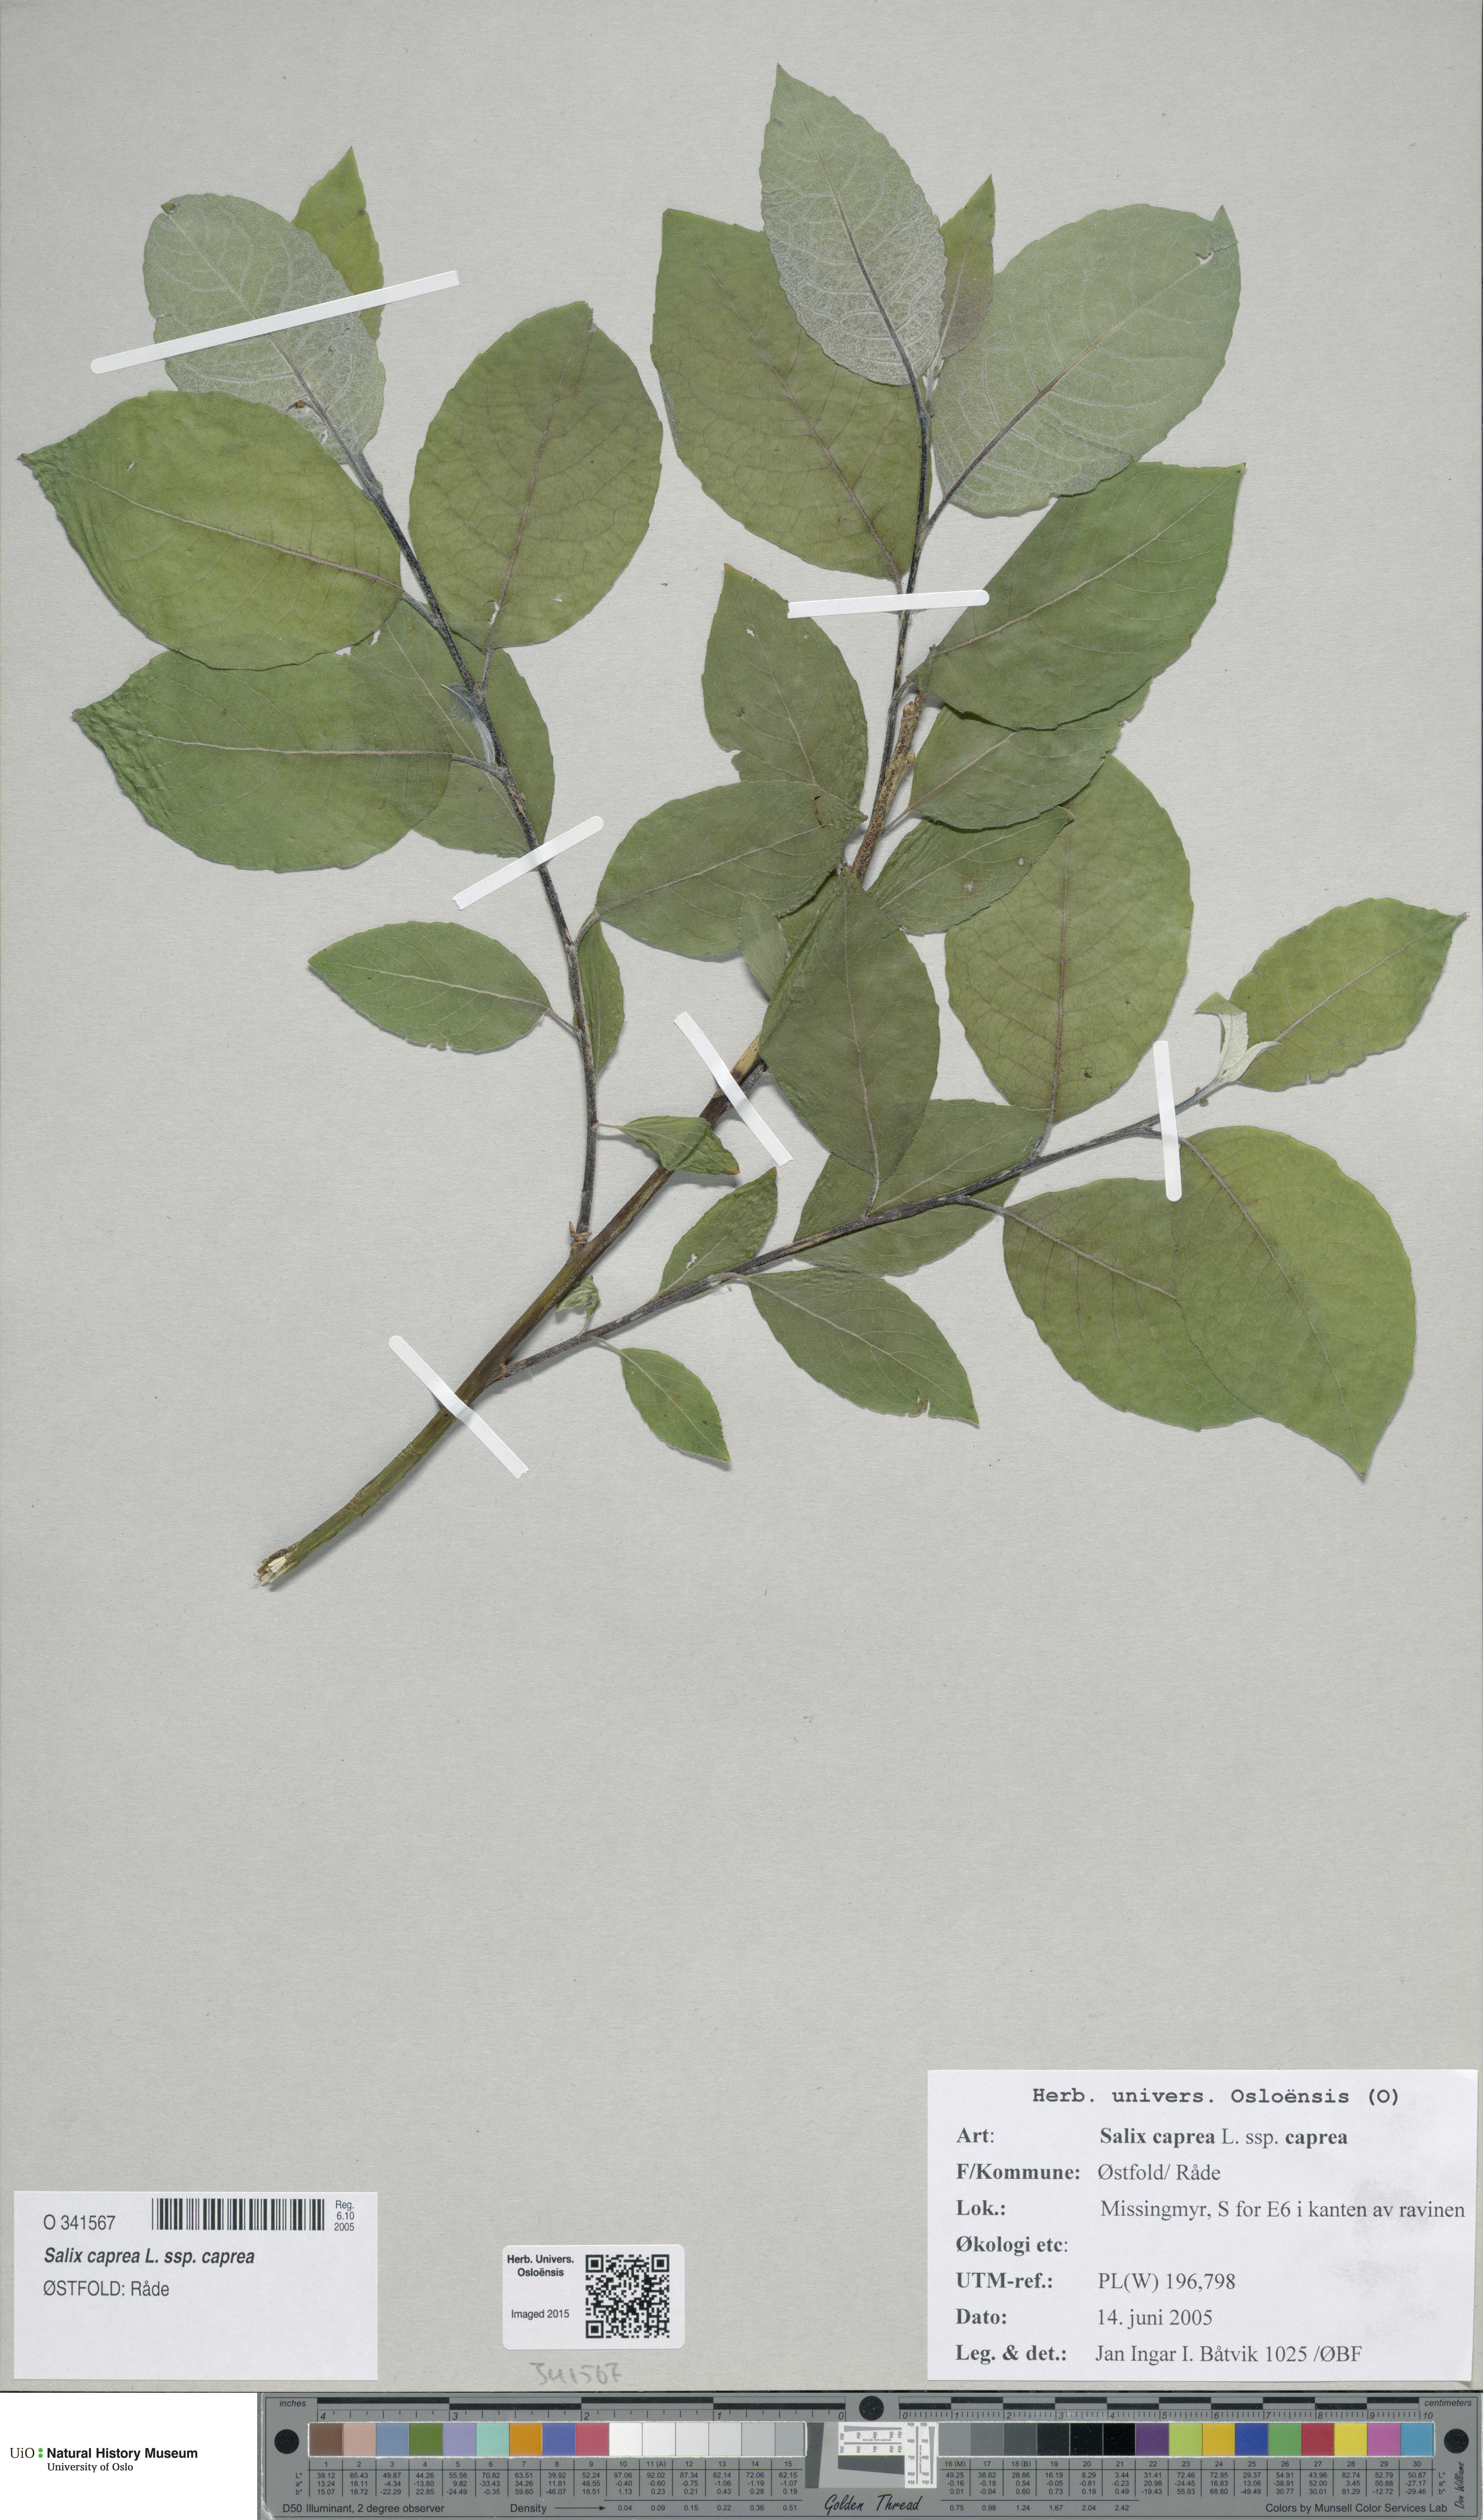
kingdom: Plantae
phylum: Tracheophyta
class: Magnoliopsida
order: Malpighiales
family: Salicaceae
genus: Salix
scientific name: Salix caprea
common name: Goat willow
